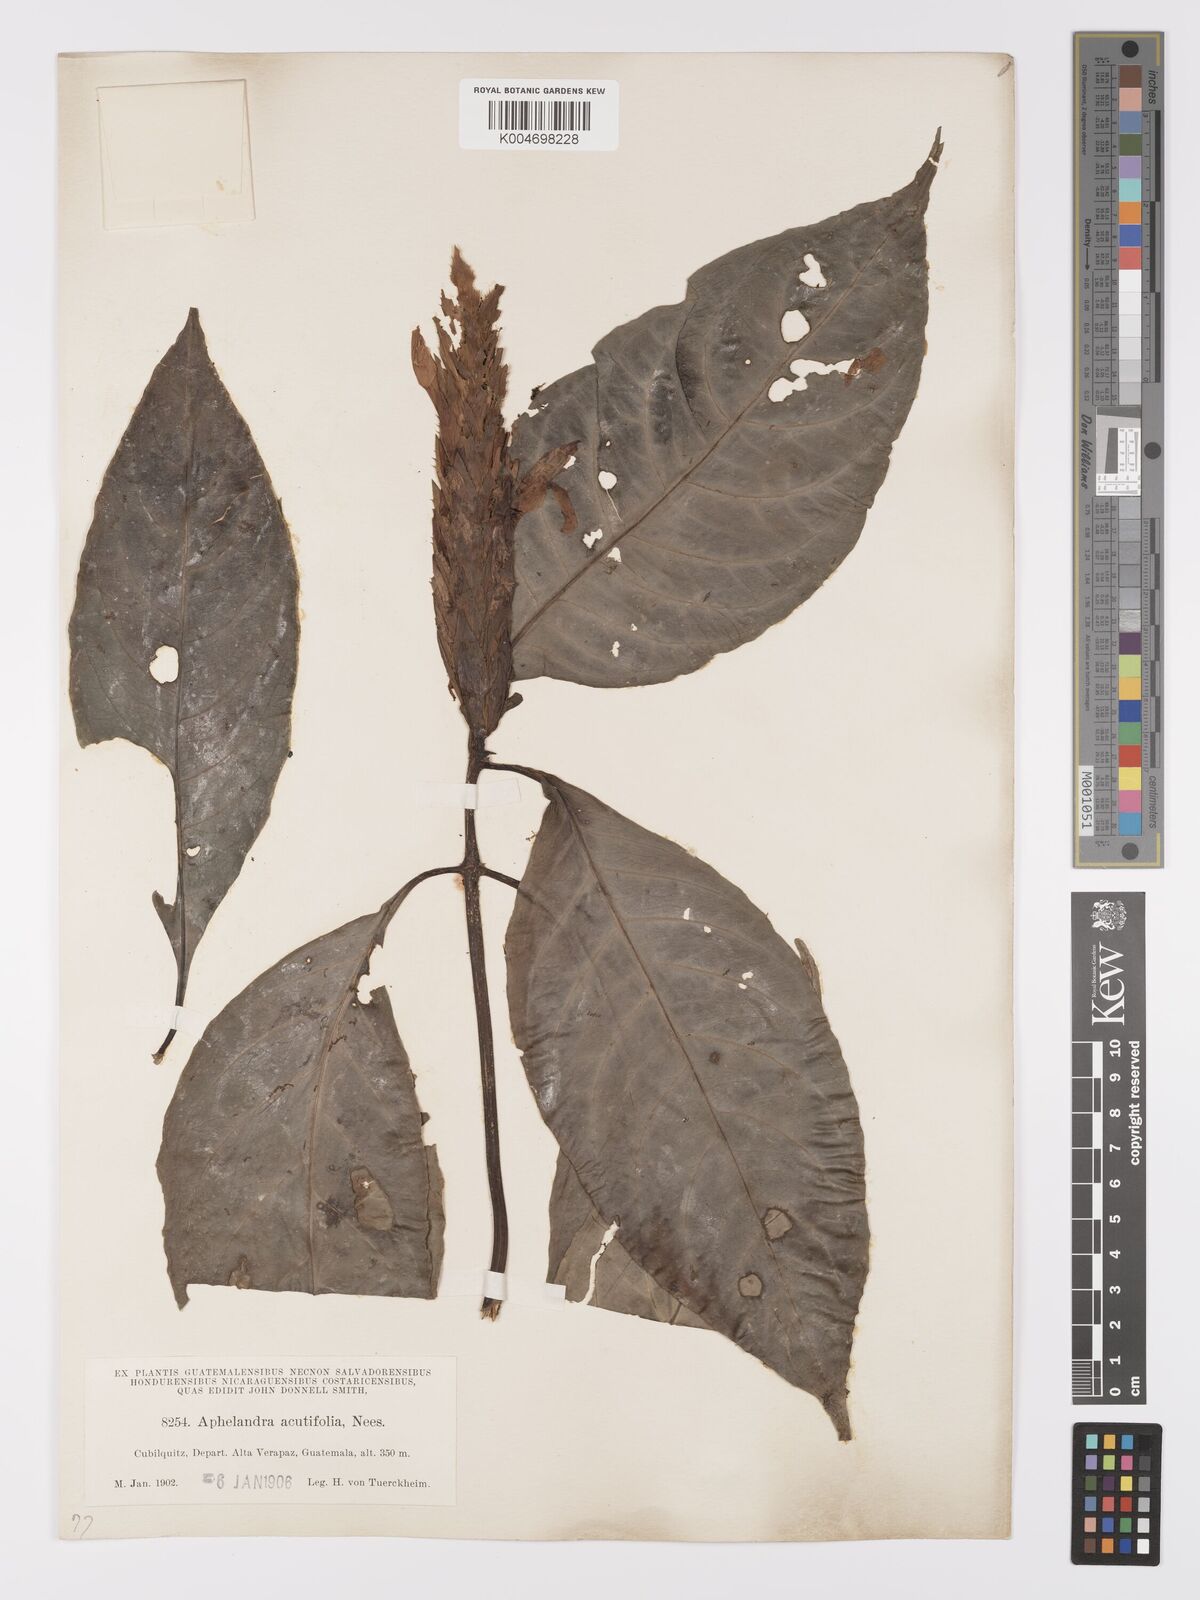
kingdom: Plantae
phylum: Tracheophyta
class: Magnoliopsida
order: Lamiales
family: Acanthaceae
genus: Aphelandra
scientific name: Aphelandra aurantiaca
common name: Fiery spike
